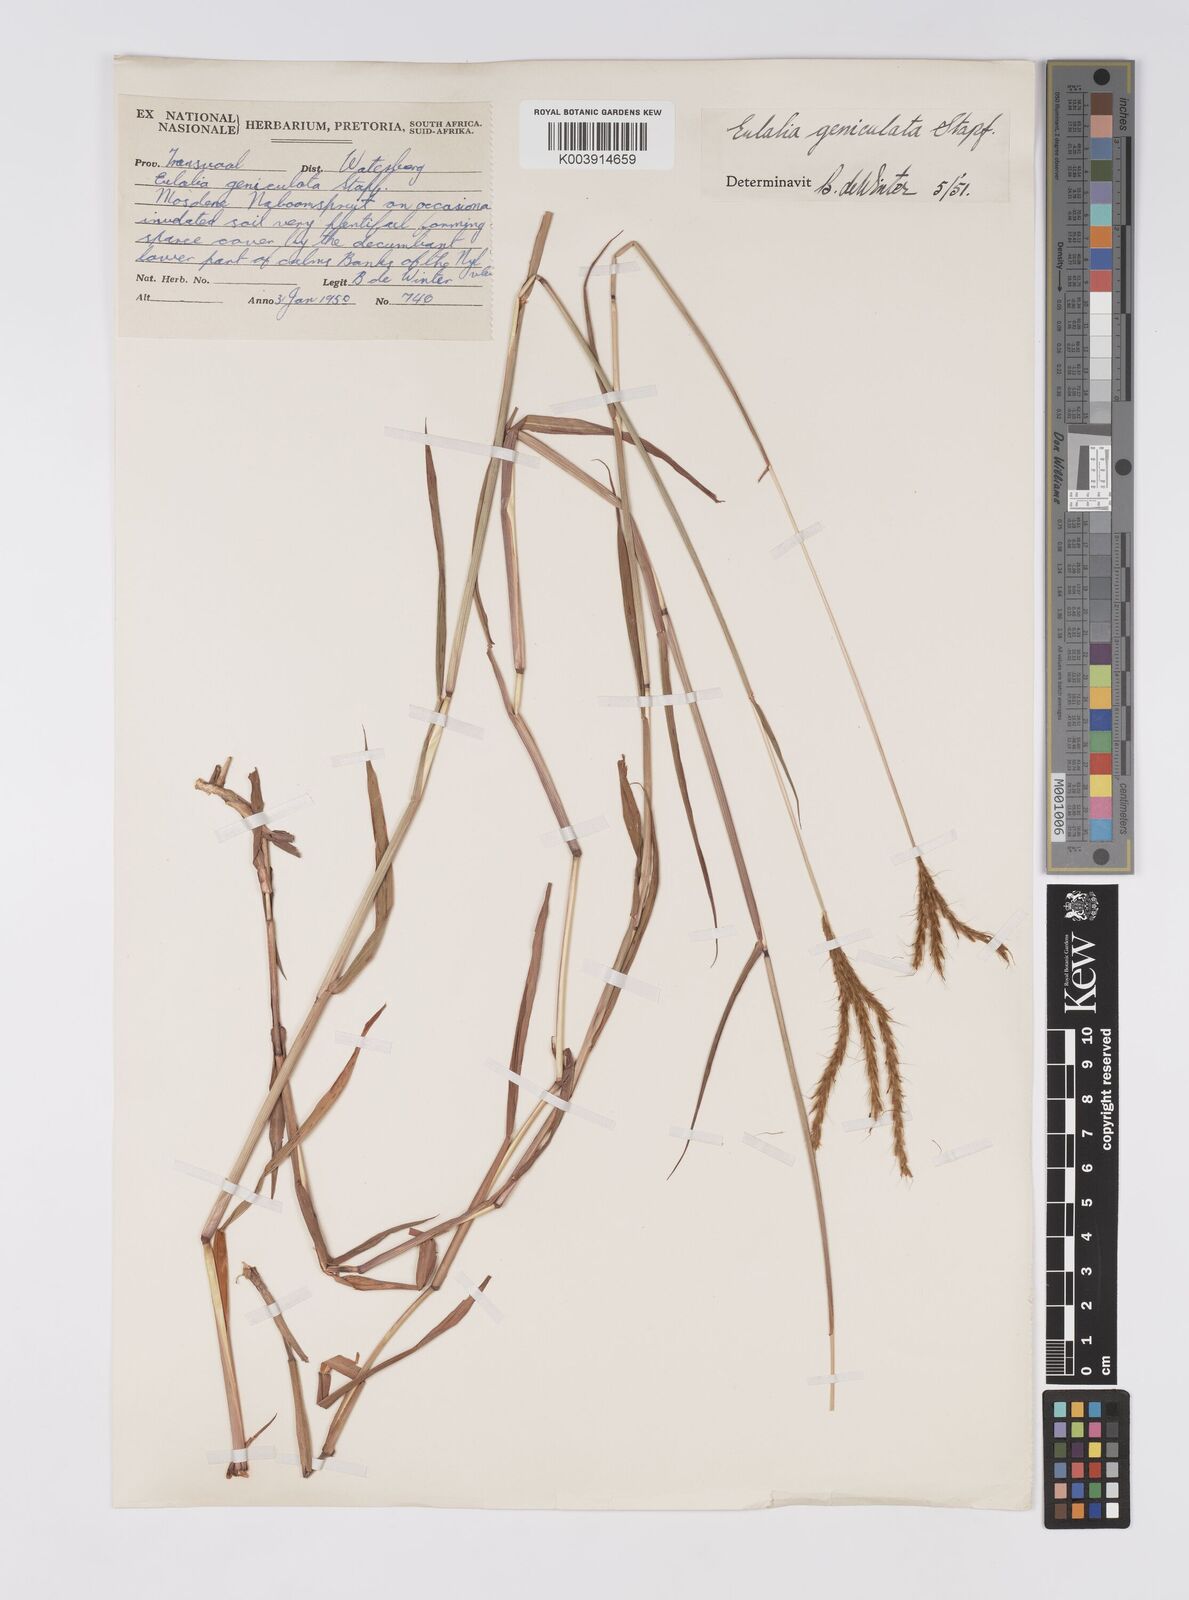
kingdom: Plantae
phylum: Tracheophyta
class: Liliopsida
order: Poales
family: Poaceae
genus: Eulalia
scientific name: Eulalia aurea
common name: Silky browntop
